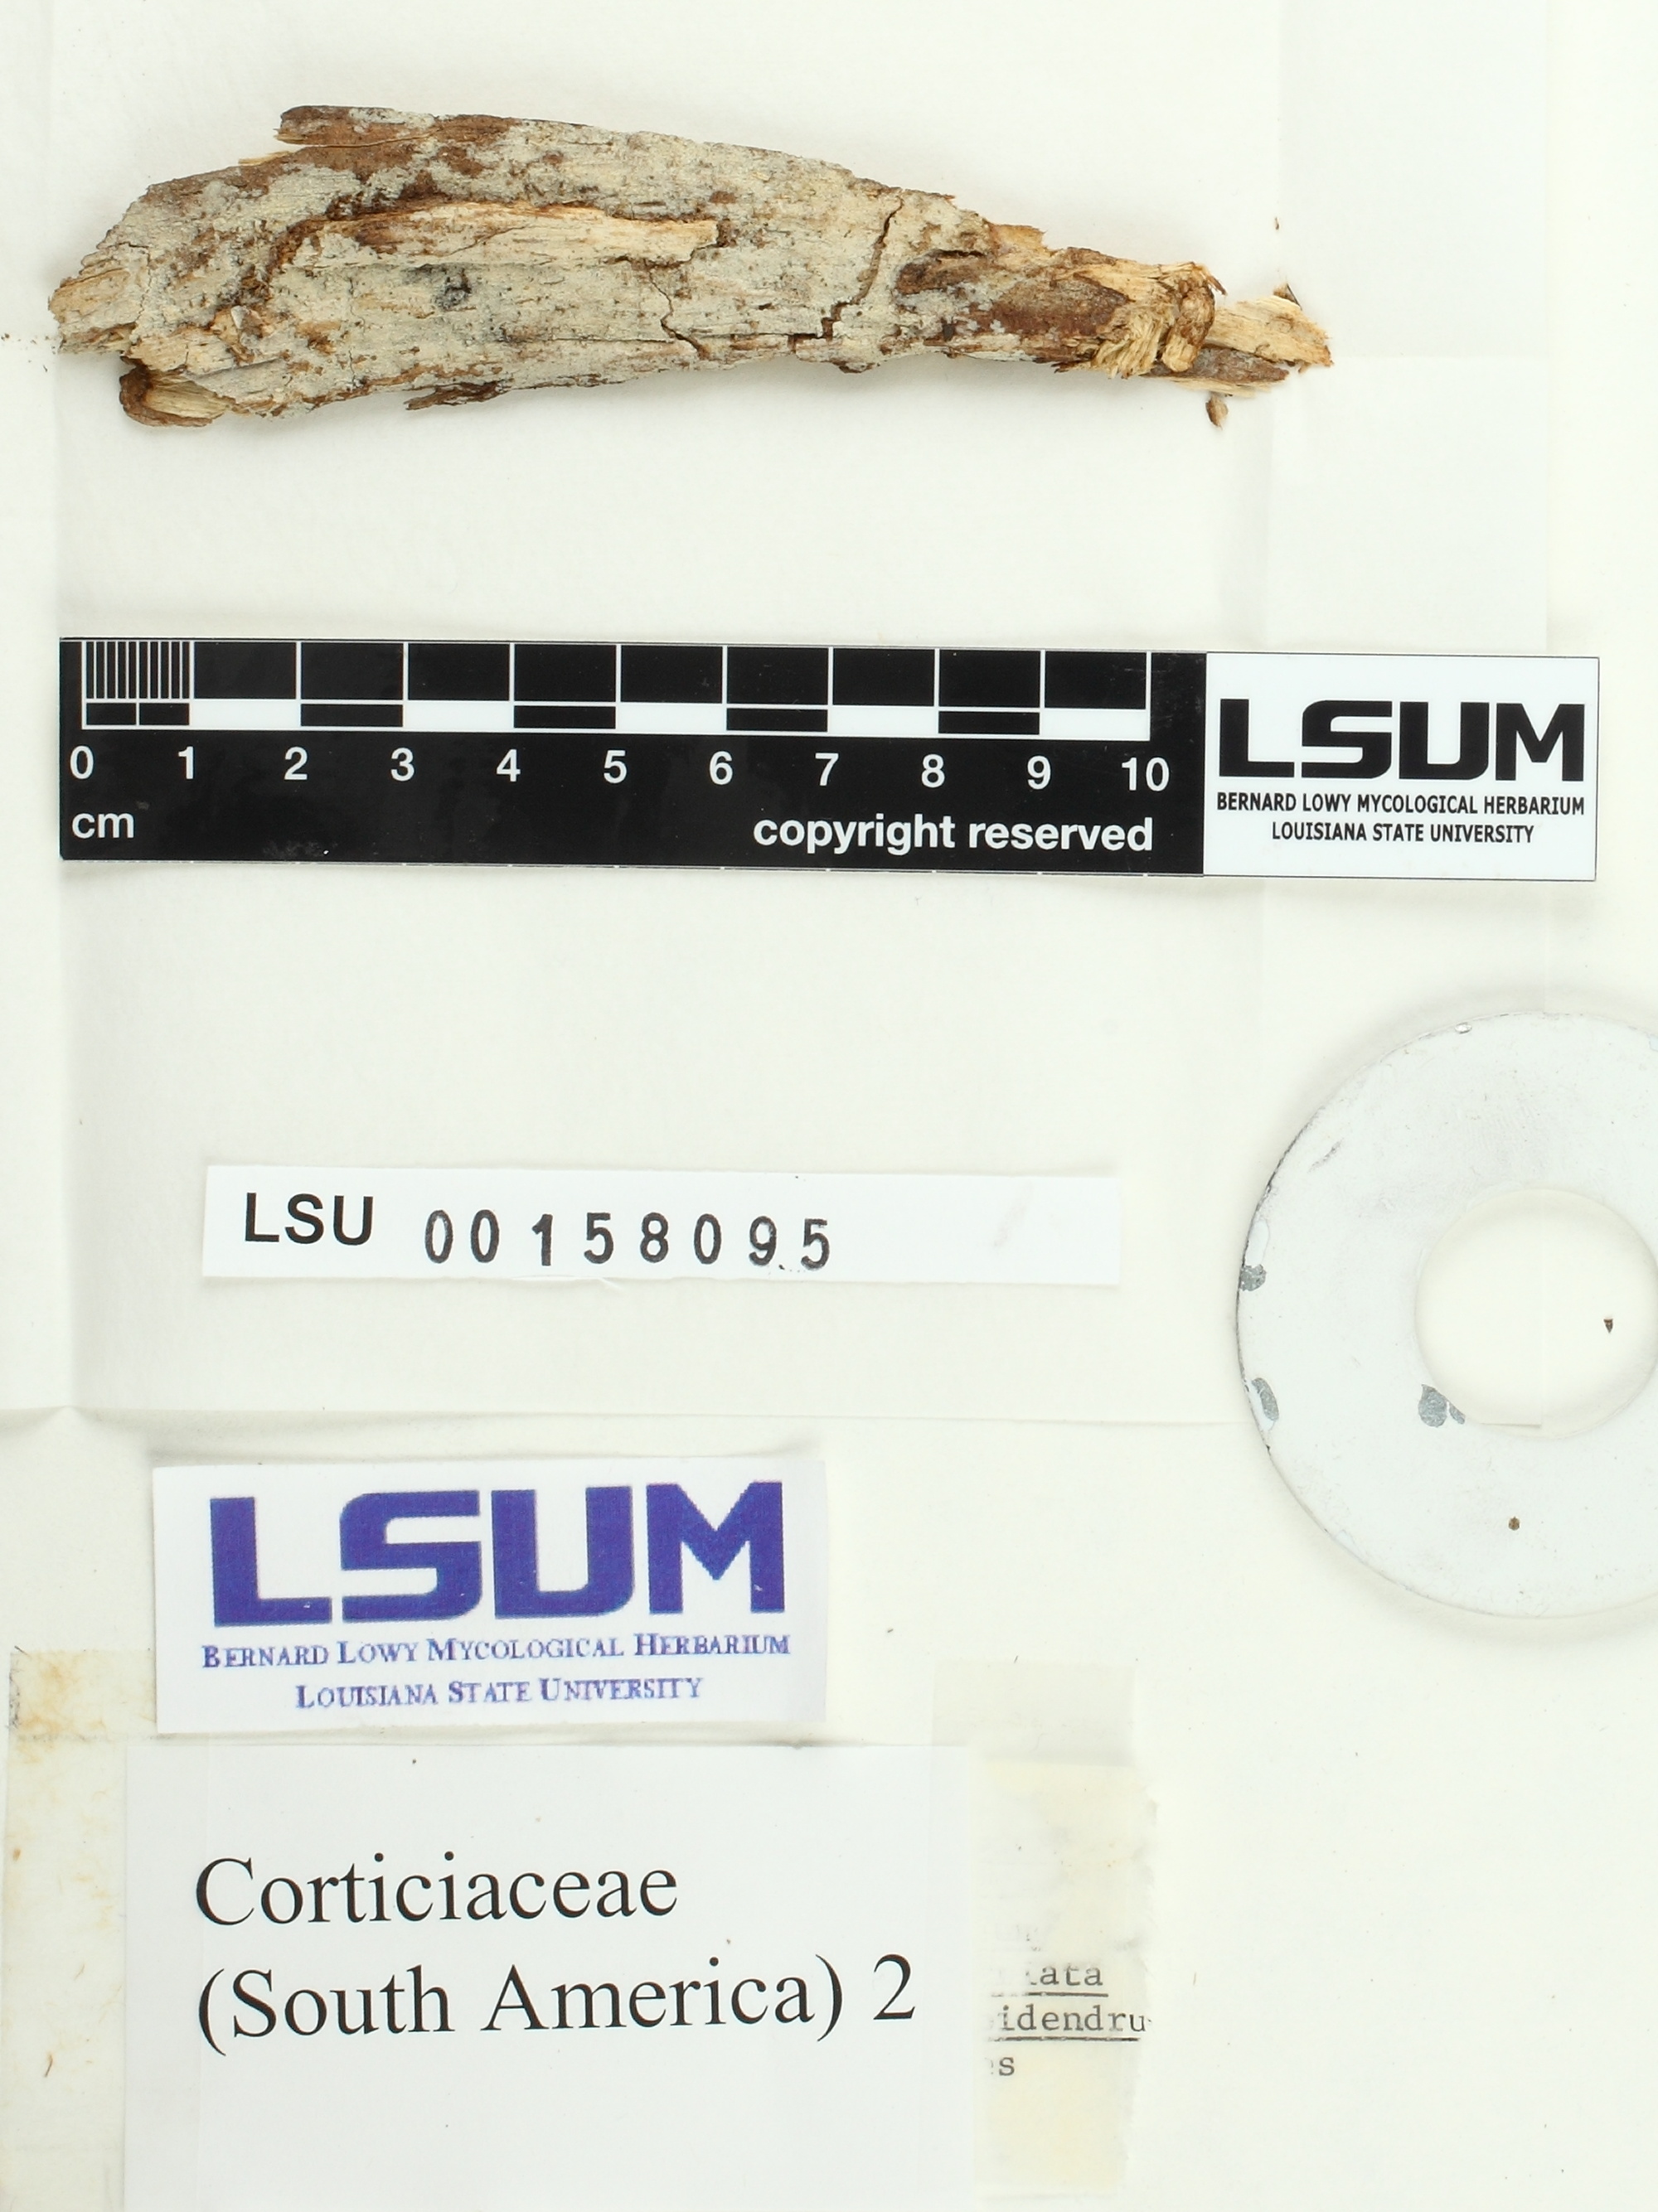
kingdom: Fungi
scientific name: Fungi
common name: Fungi
